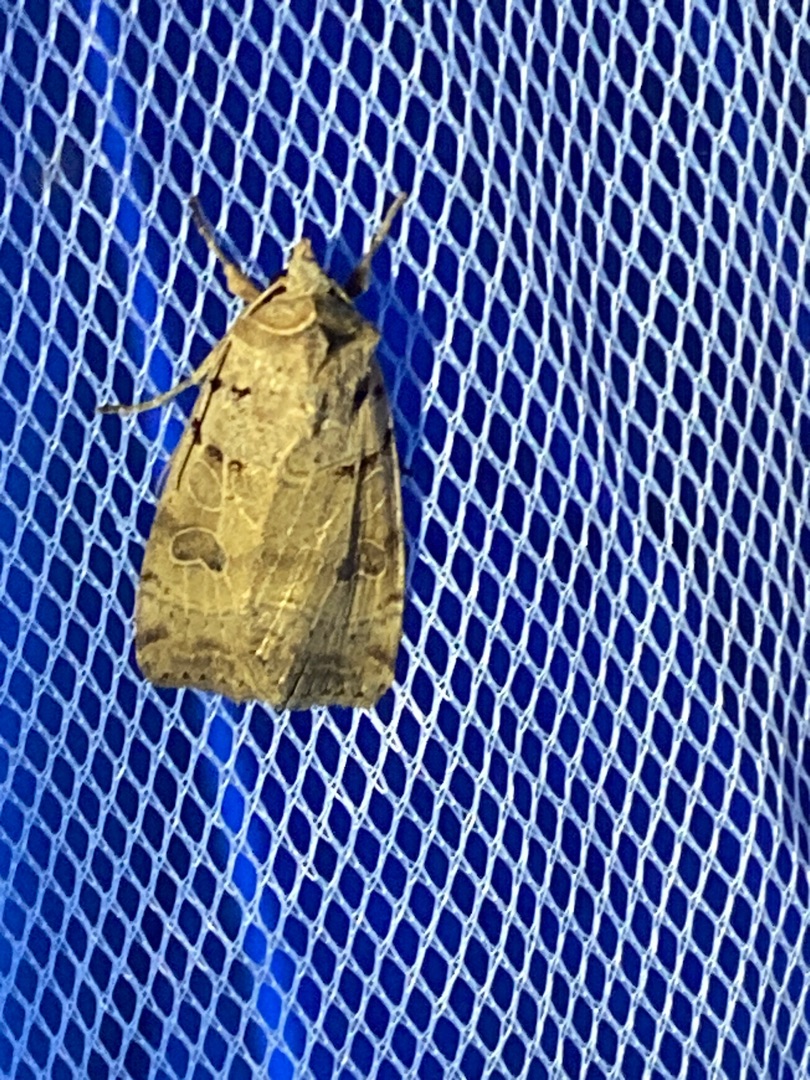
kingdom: Animalia
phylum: Arthropoda
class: Insecta
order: Lepidoptera
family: Noctuidae
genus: Eugnorisma
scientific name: Eugnorisma depuncta
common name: Skarptegnet ugle
